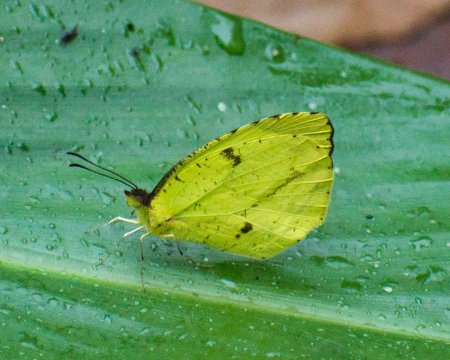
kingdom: Animalia
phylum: Arthropoda
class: Insecta
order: Lepidoptera
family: Pieridae
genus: Eurema
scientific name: Eurema xantochlora
